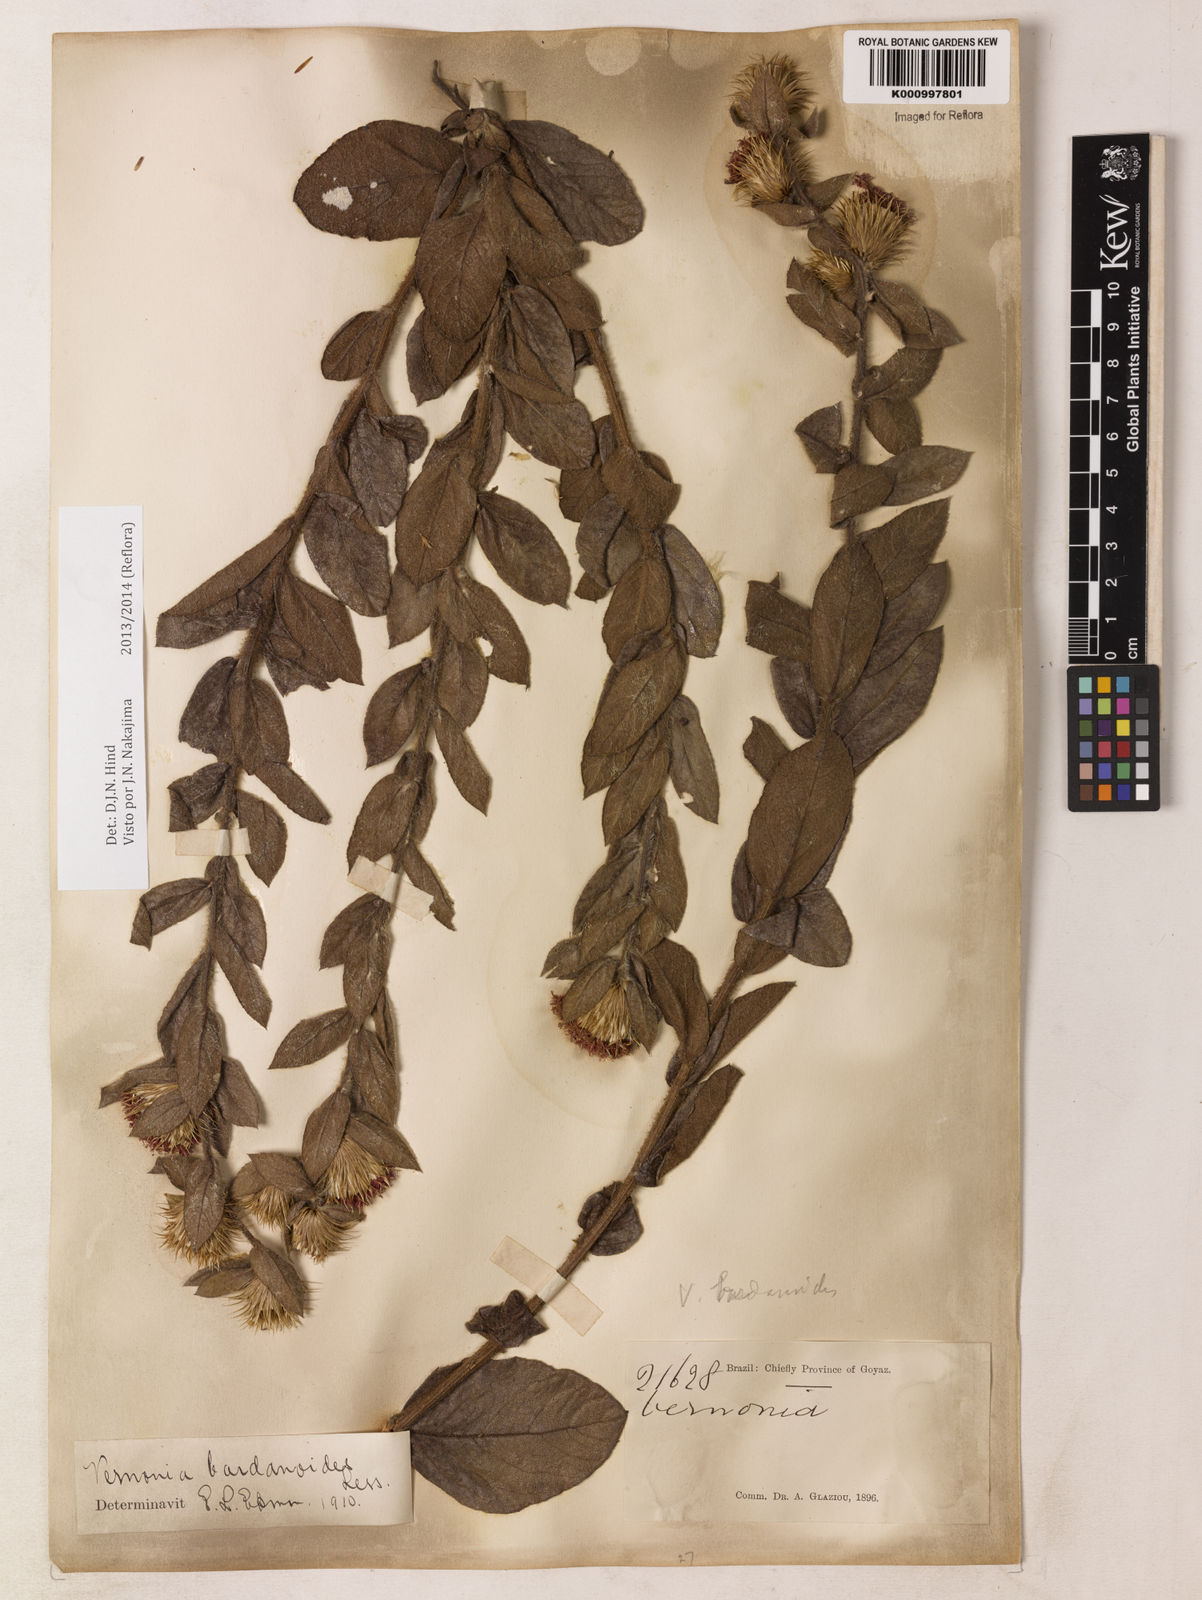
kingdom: Plantae
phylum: Tracheophyta
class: Magnoliopsida
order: Asterales
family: Asteraceae
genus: Lessingianthus
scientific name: Lessingianthus bardanioides
